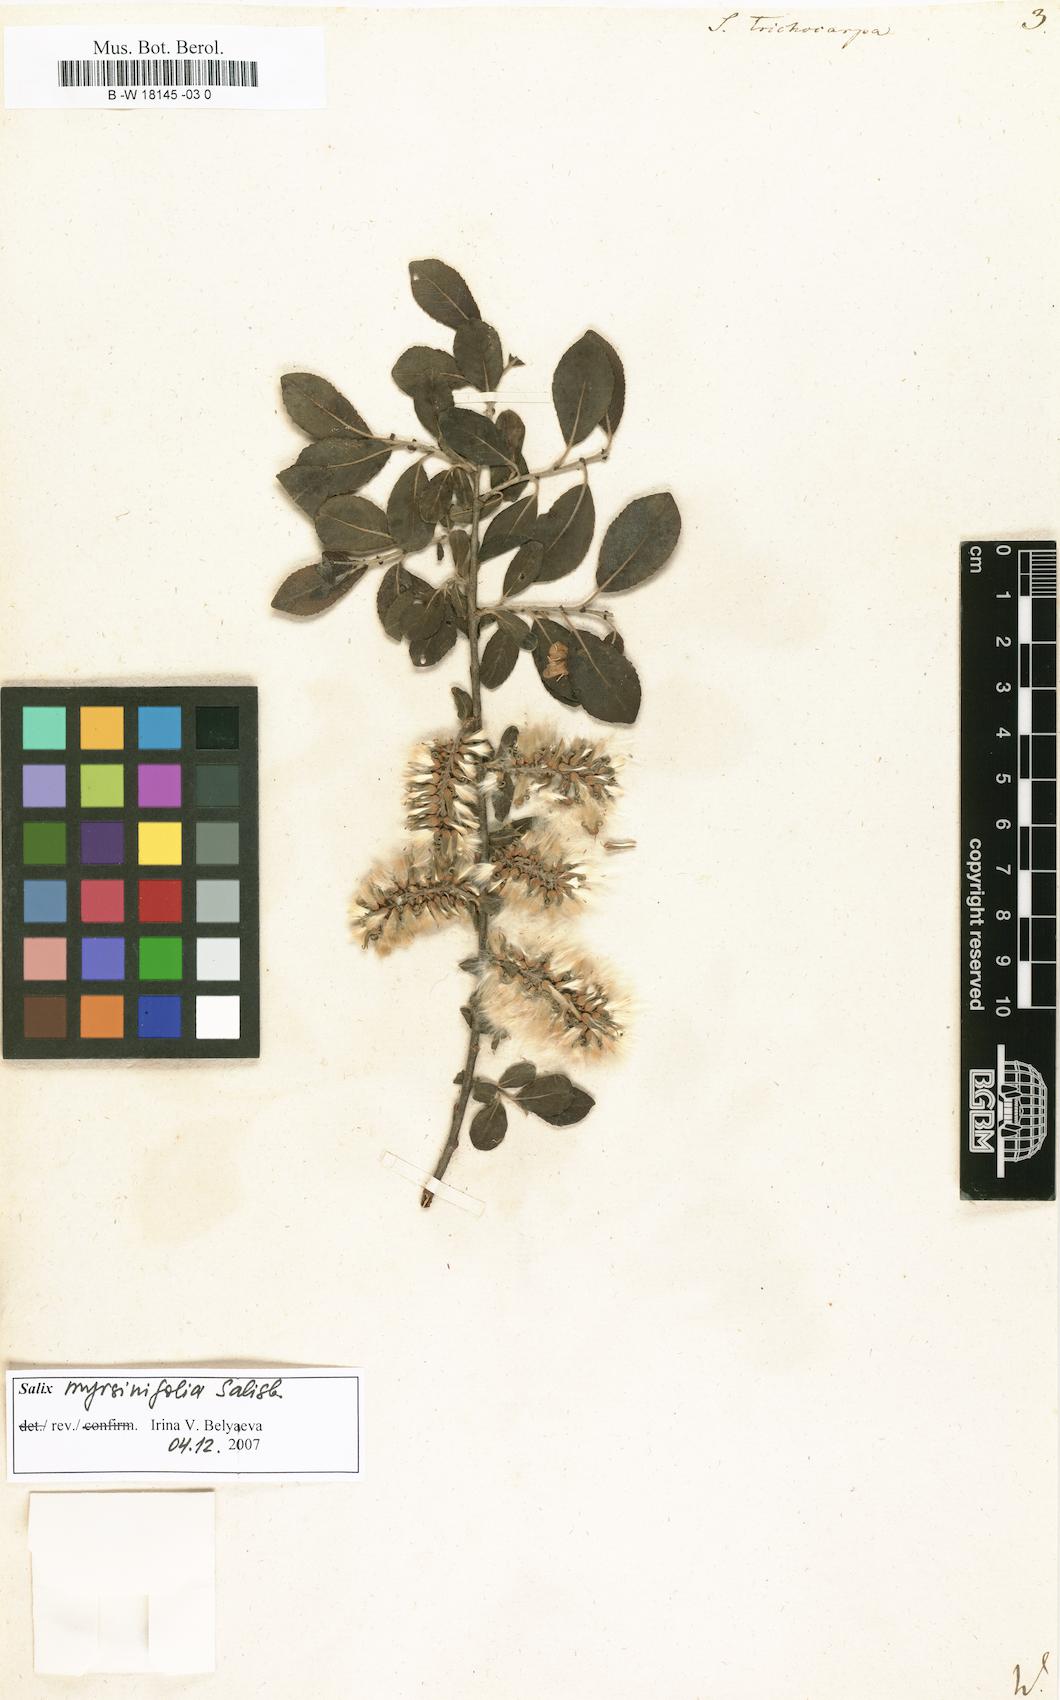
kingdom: Plantae
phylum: Tracheophyta
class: Magnoliopsida
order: Malpighiales
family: Salicaceae
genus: Salix
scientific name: Salix trichocarpa
